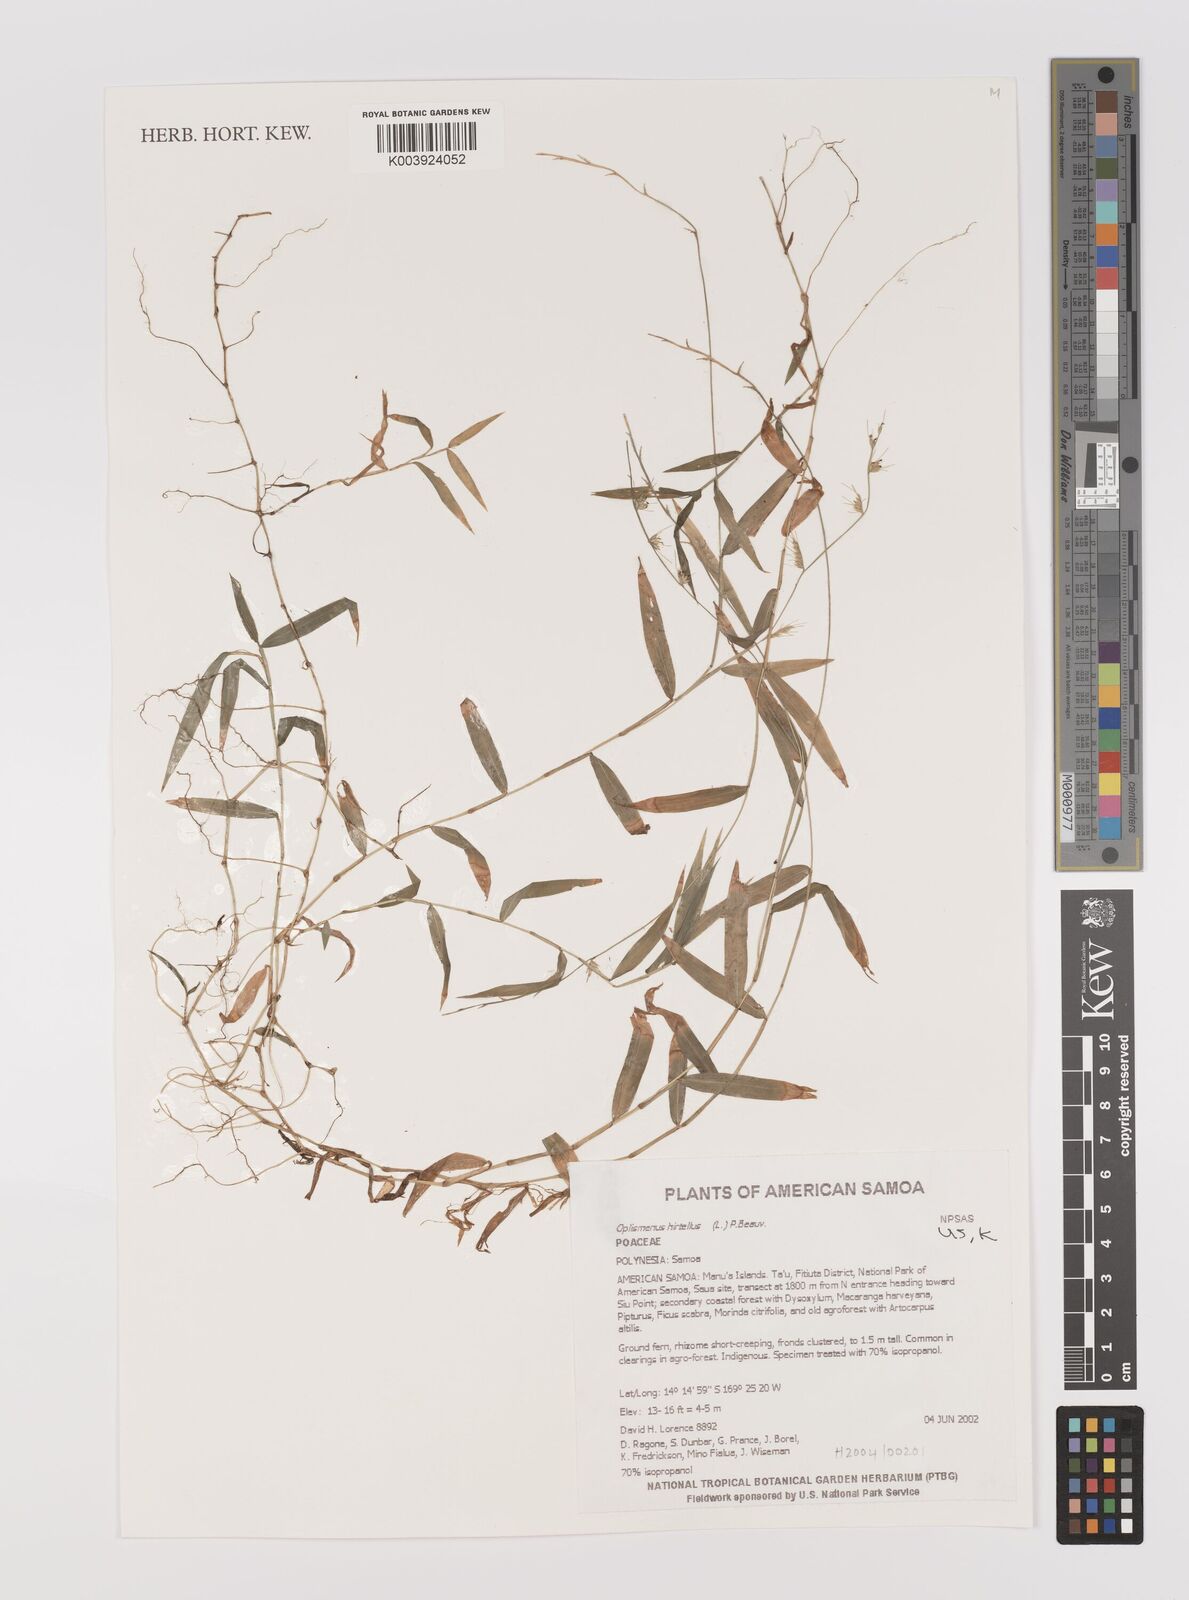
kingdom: Plantae
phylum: Tracheophyta
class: Liliopsida
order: Poales
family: Poaceae
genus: Oplismenus
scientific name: Oplismenus hirtellus
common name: Basketgrass
